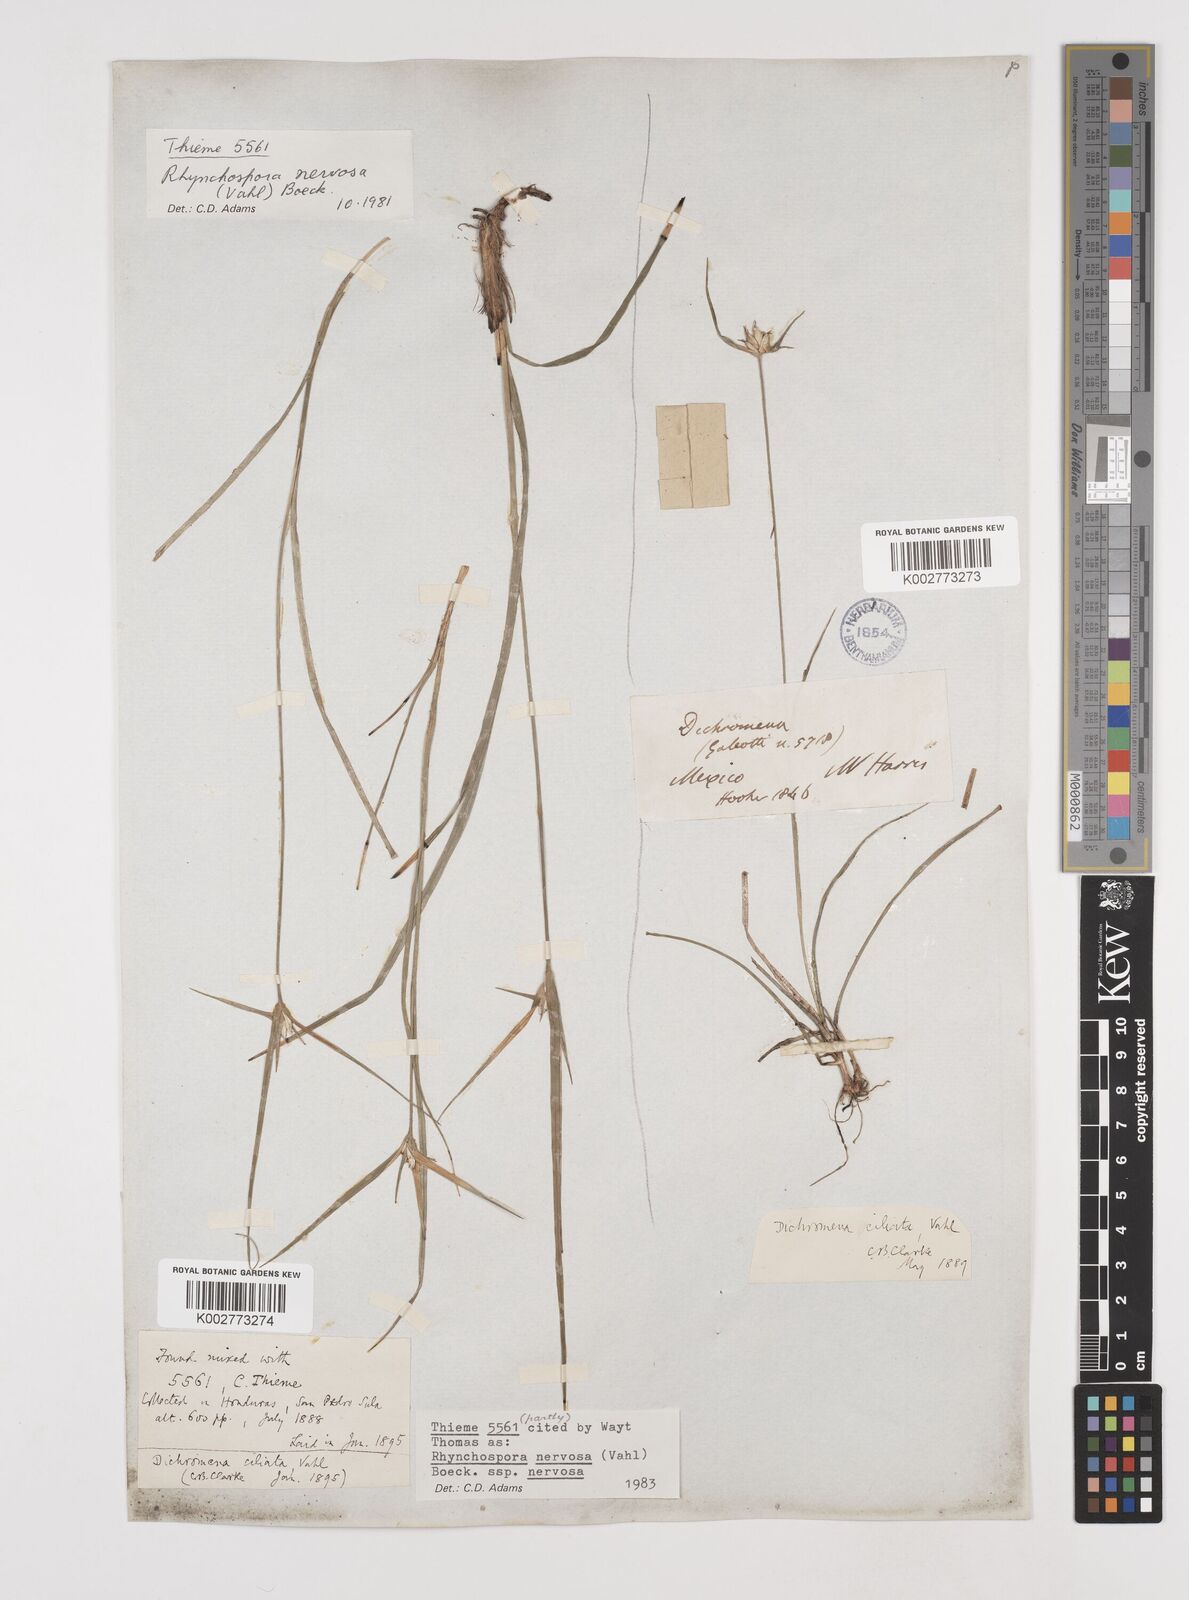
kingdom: Plantae
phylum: Tracheophyta
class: Liliopsida
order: Poales
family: Cyperaceae
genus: Rhynchospora
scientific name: Rhynchospora nervosa
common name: Star sedge
